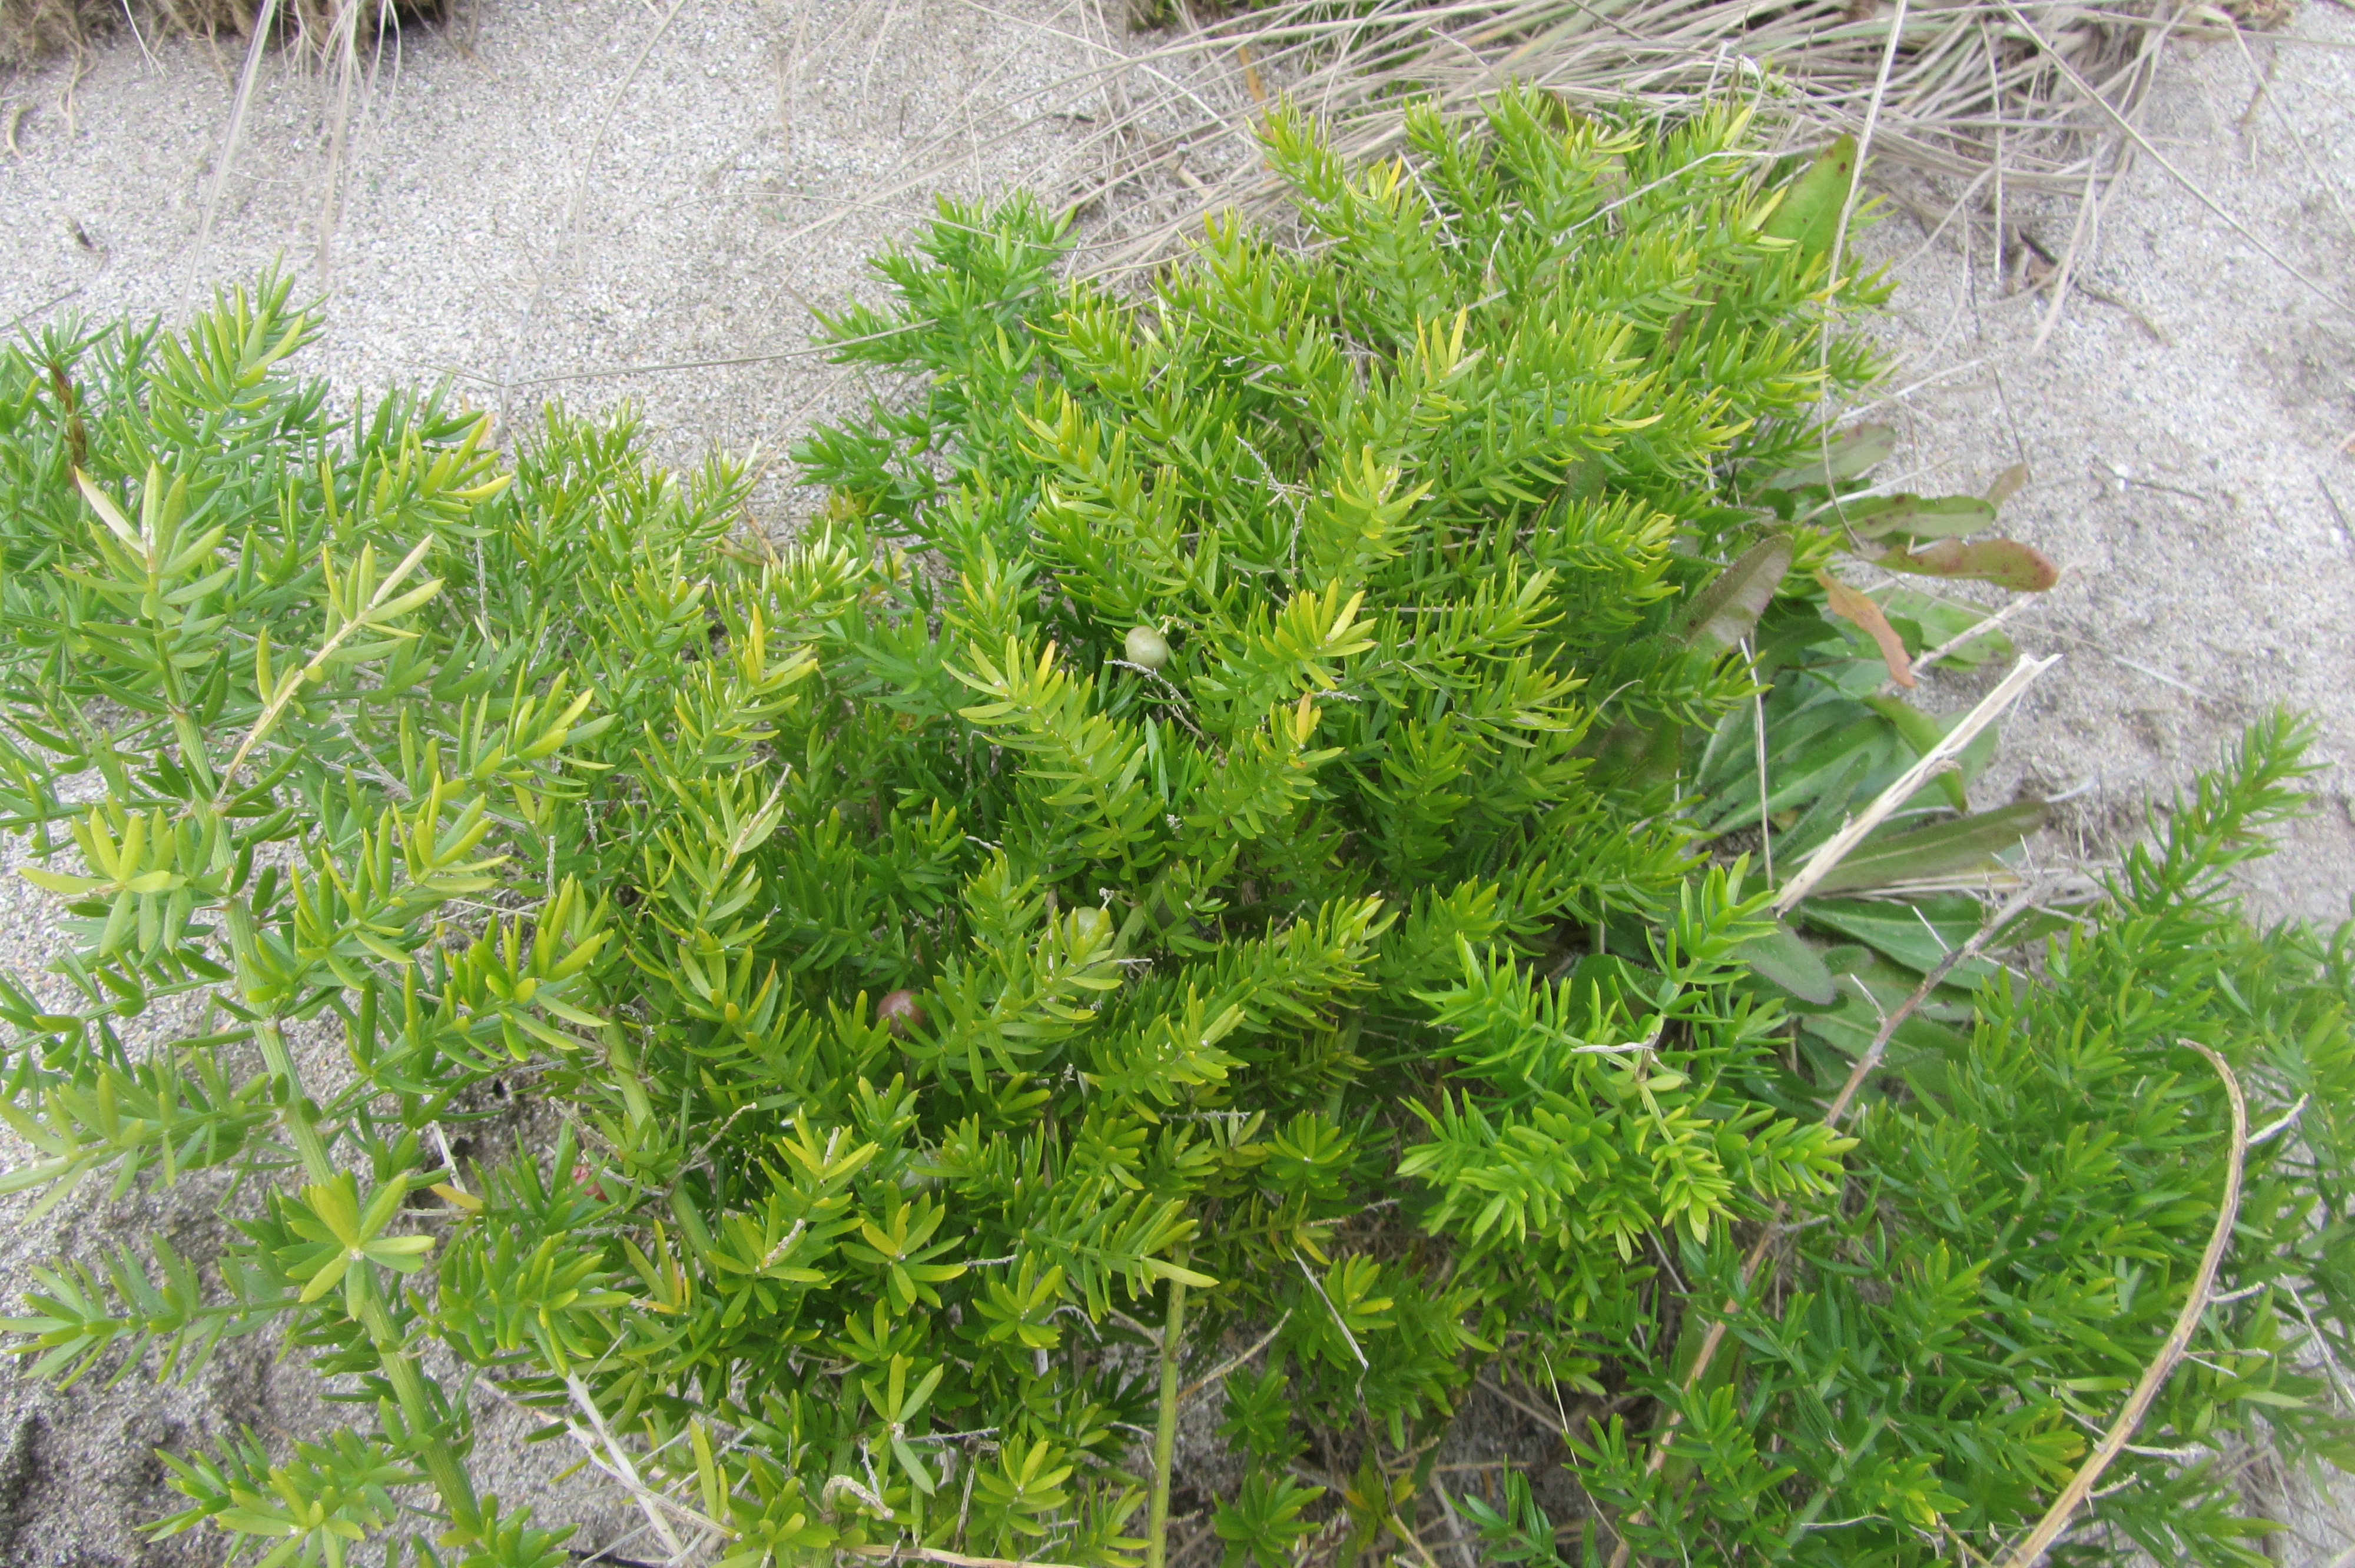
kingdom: Plantae
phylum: Tracheophyta
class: Liliopsida
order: Asparagales
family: Asparagaceae
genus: Asparagus
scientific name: Asparagus aethiopicus
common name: Sprenger's asparagus fern
